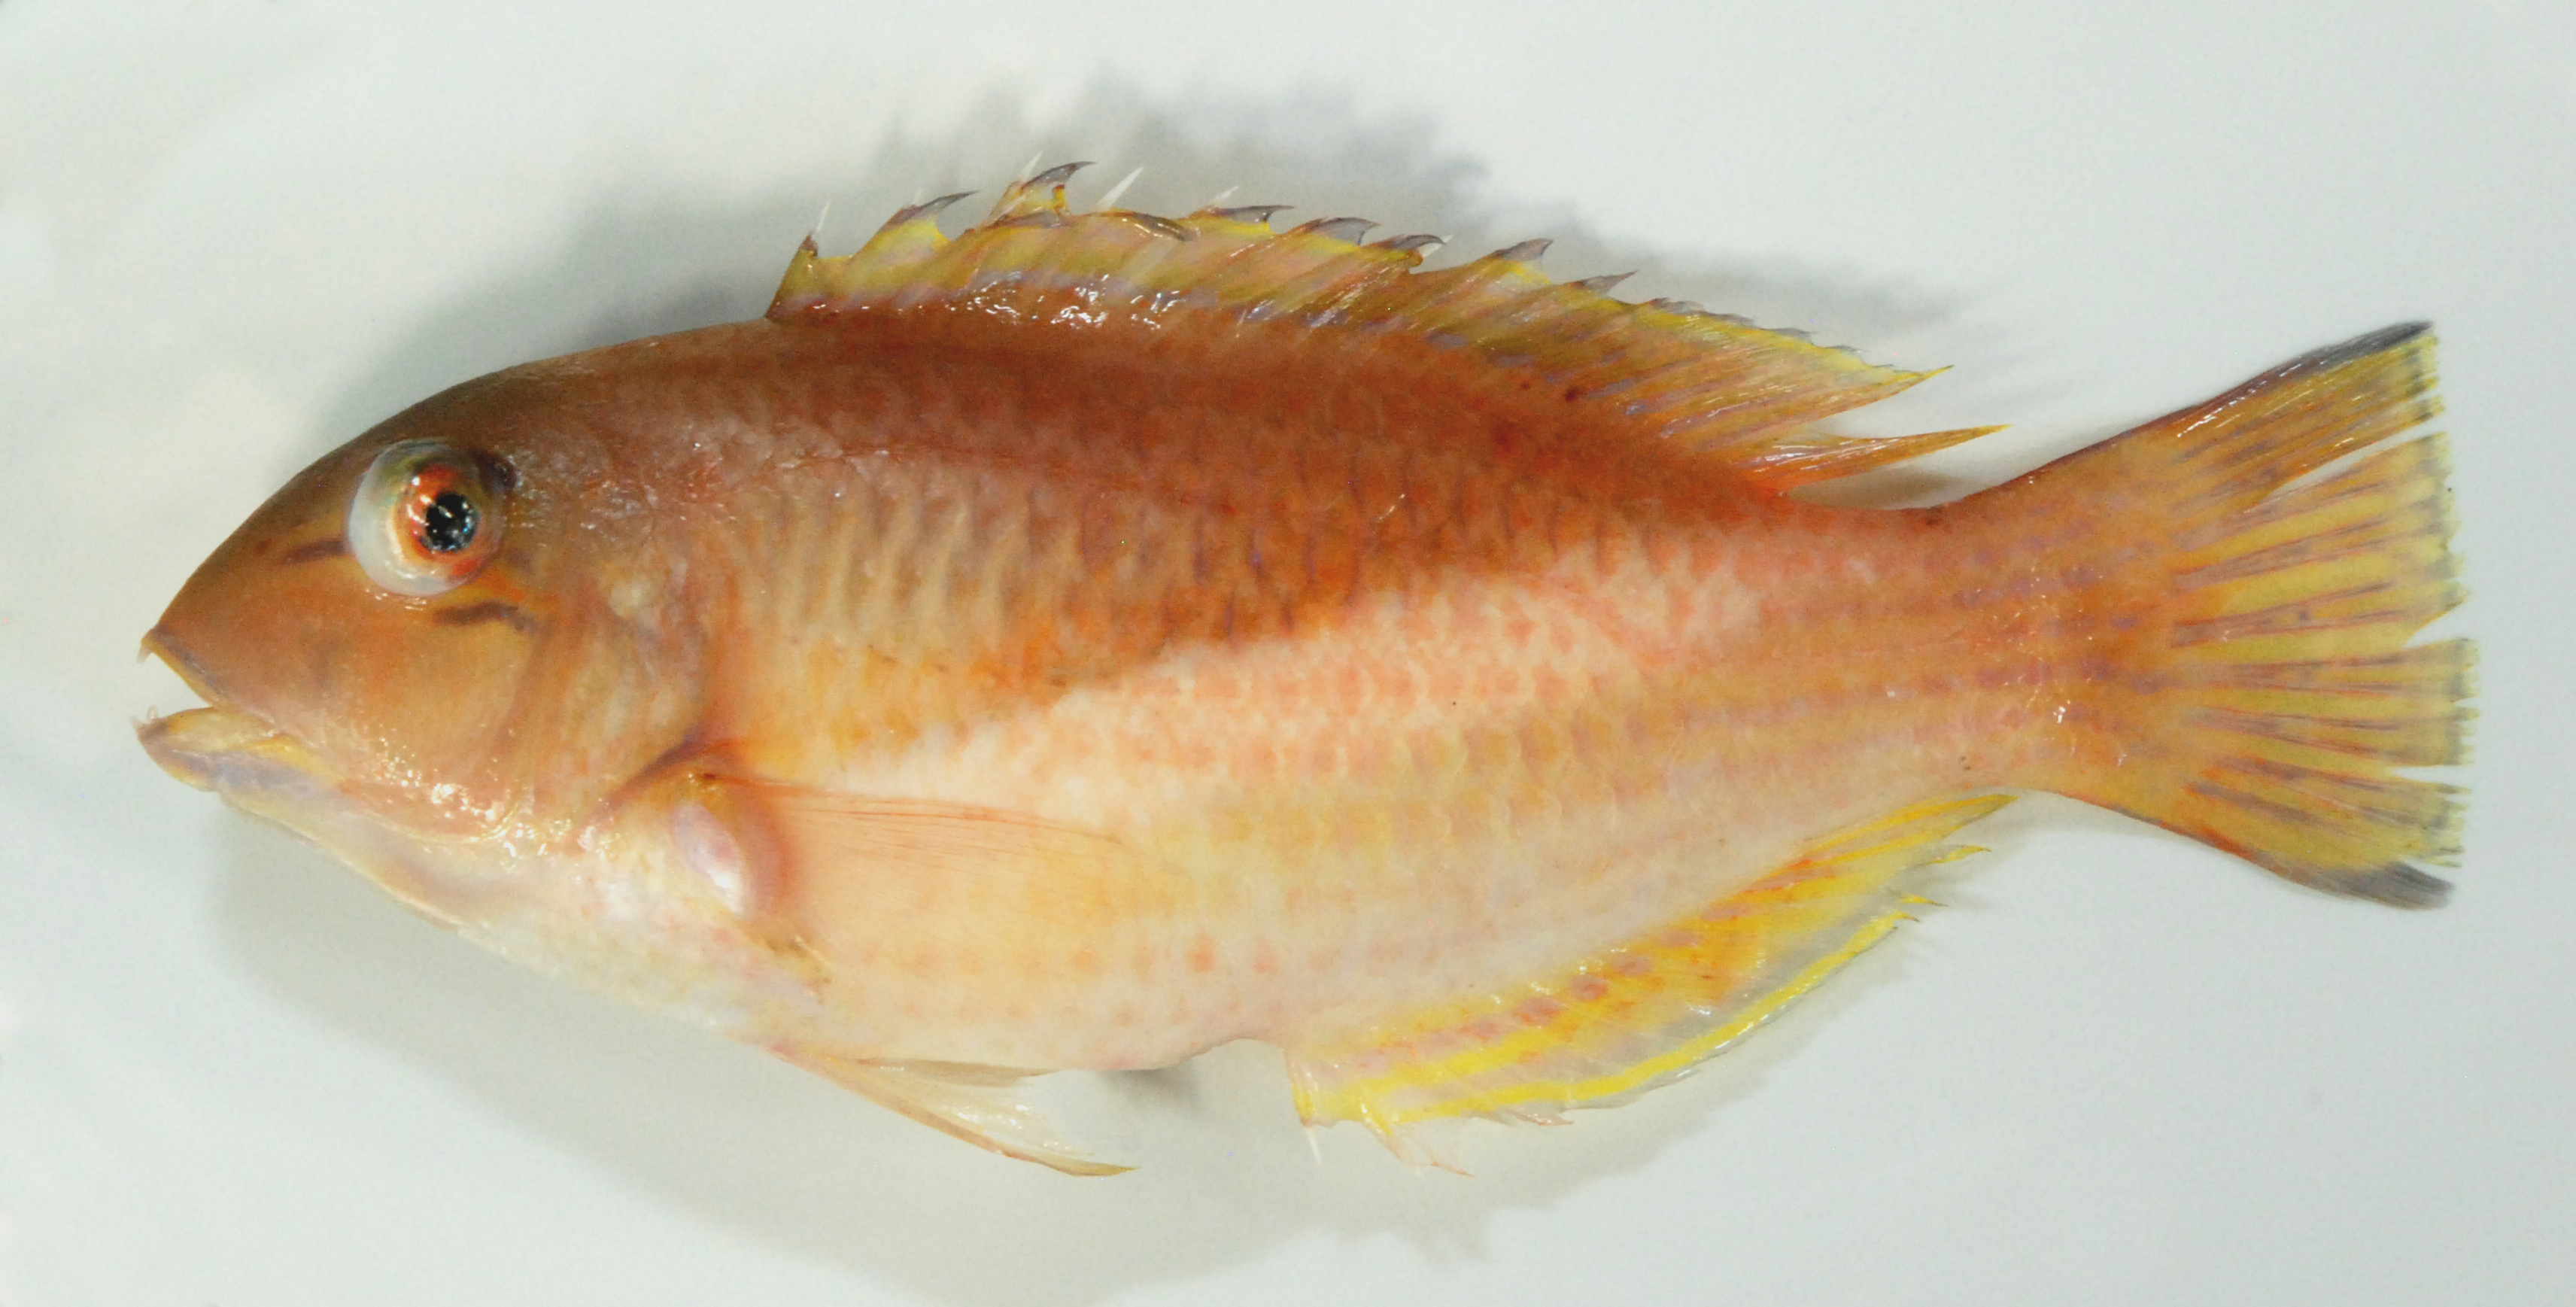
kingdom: Animalia
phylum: Chordata
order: Perciformes
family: Labridae
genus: Choerodon
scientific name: Choerodon robustus
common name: Robust tuskfish
